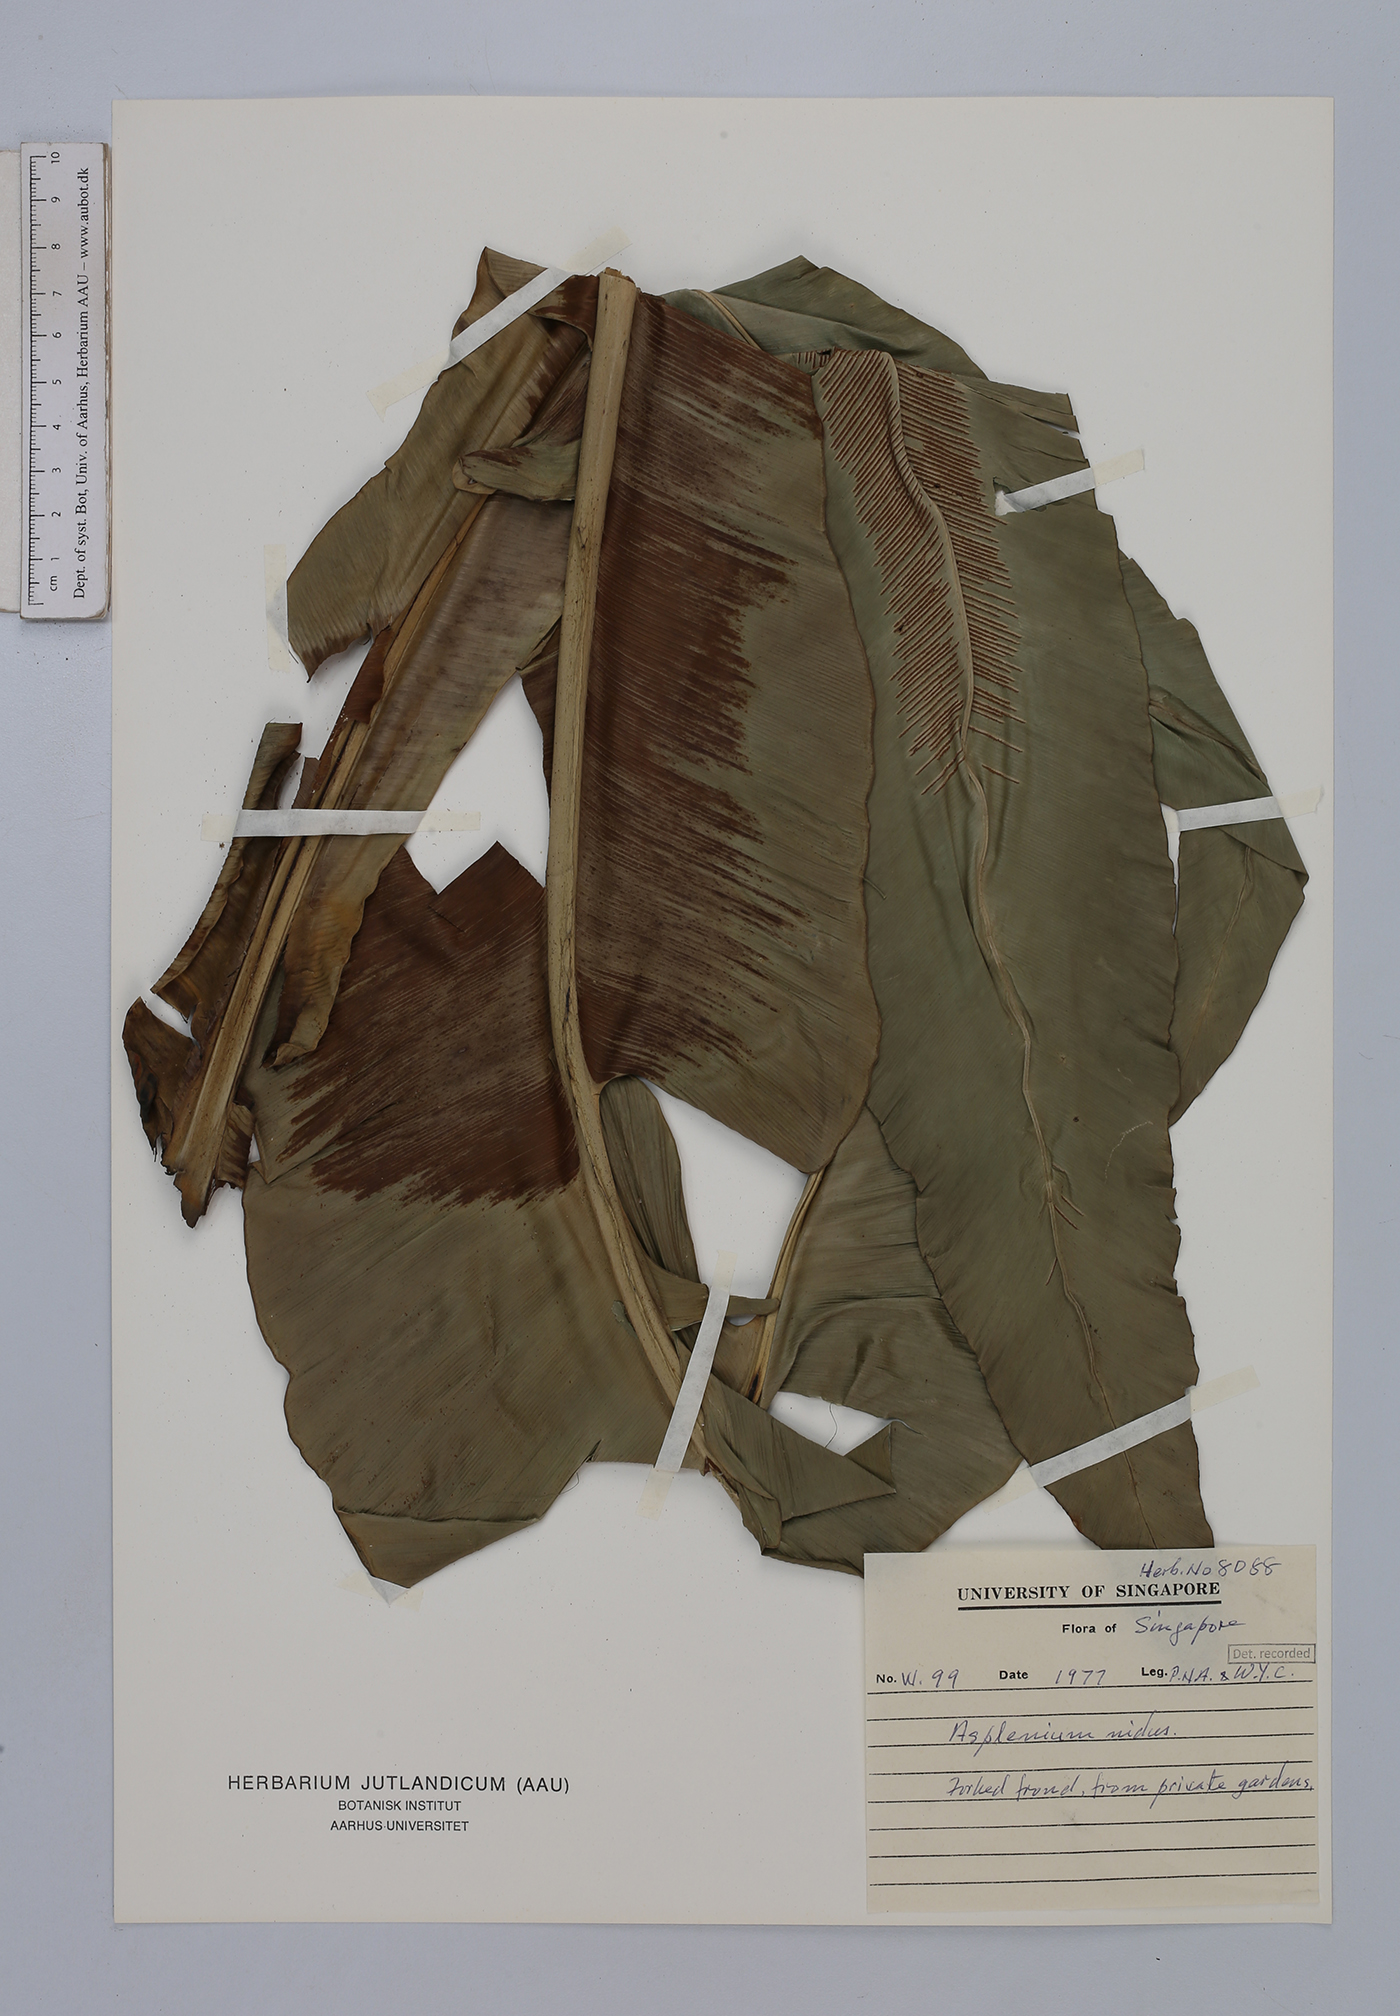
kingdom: Plantae
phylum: Tracheophyta
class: Polypodiopsida
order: Polypodiales
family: Aspleniaceae
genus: Asplenium
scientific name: Asplenium nidus
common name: Bird's-nest fern
